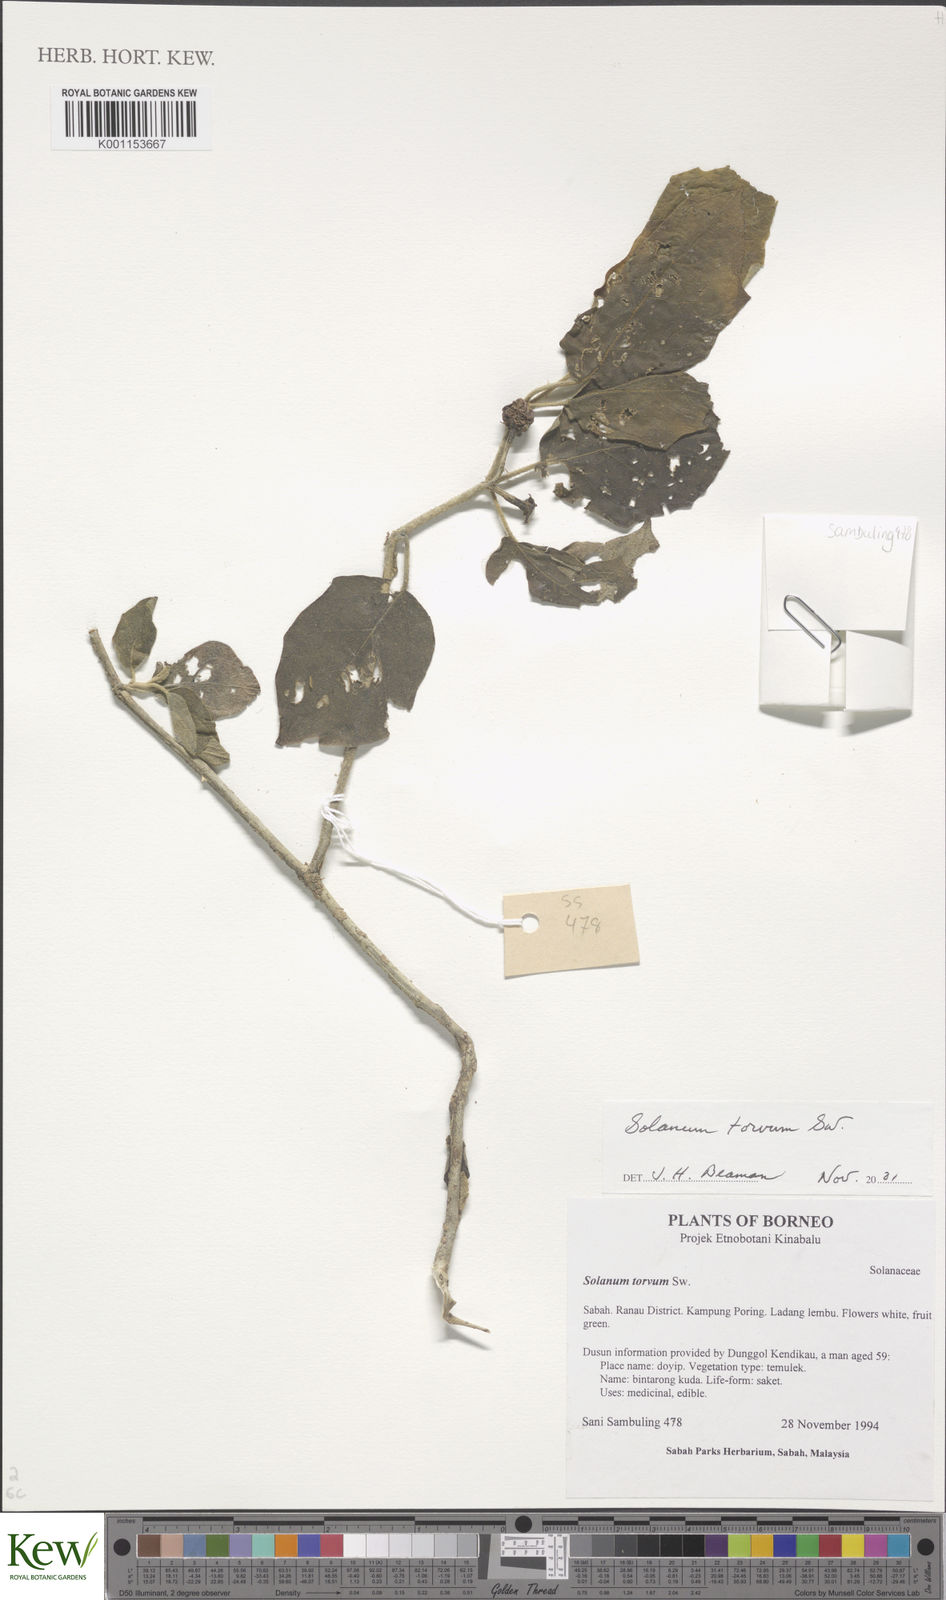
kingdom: Plantae
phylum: Tracheophyta
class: Magnoliopsida
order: Solanales
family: Solanaceae
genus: Solanum
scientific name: Solanum torvum
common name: Turkey berry
